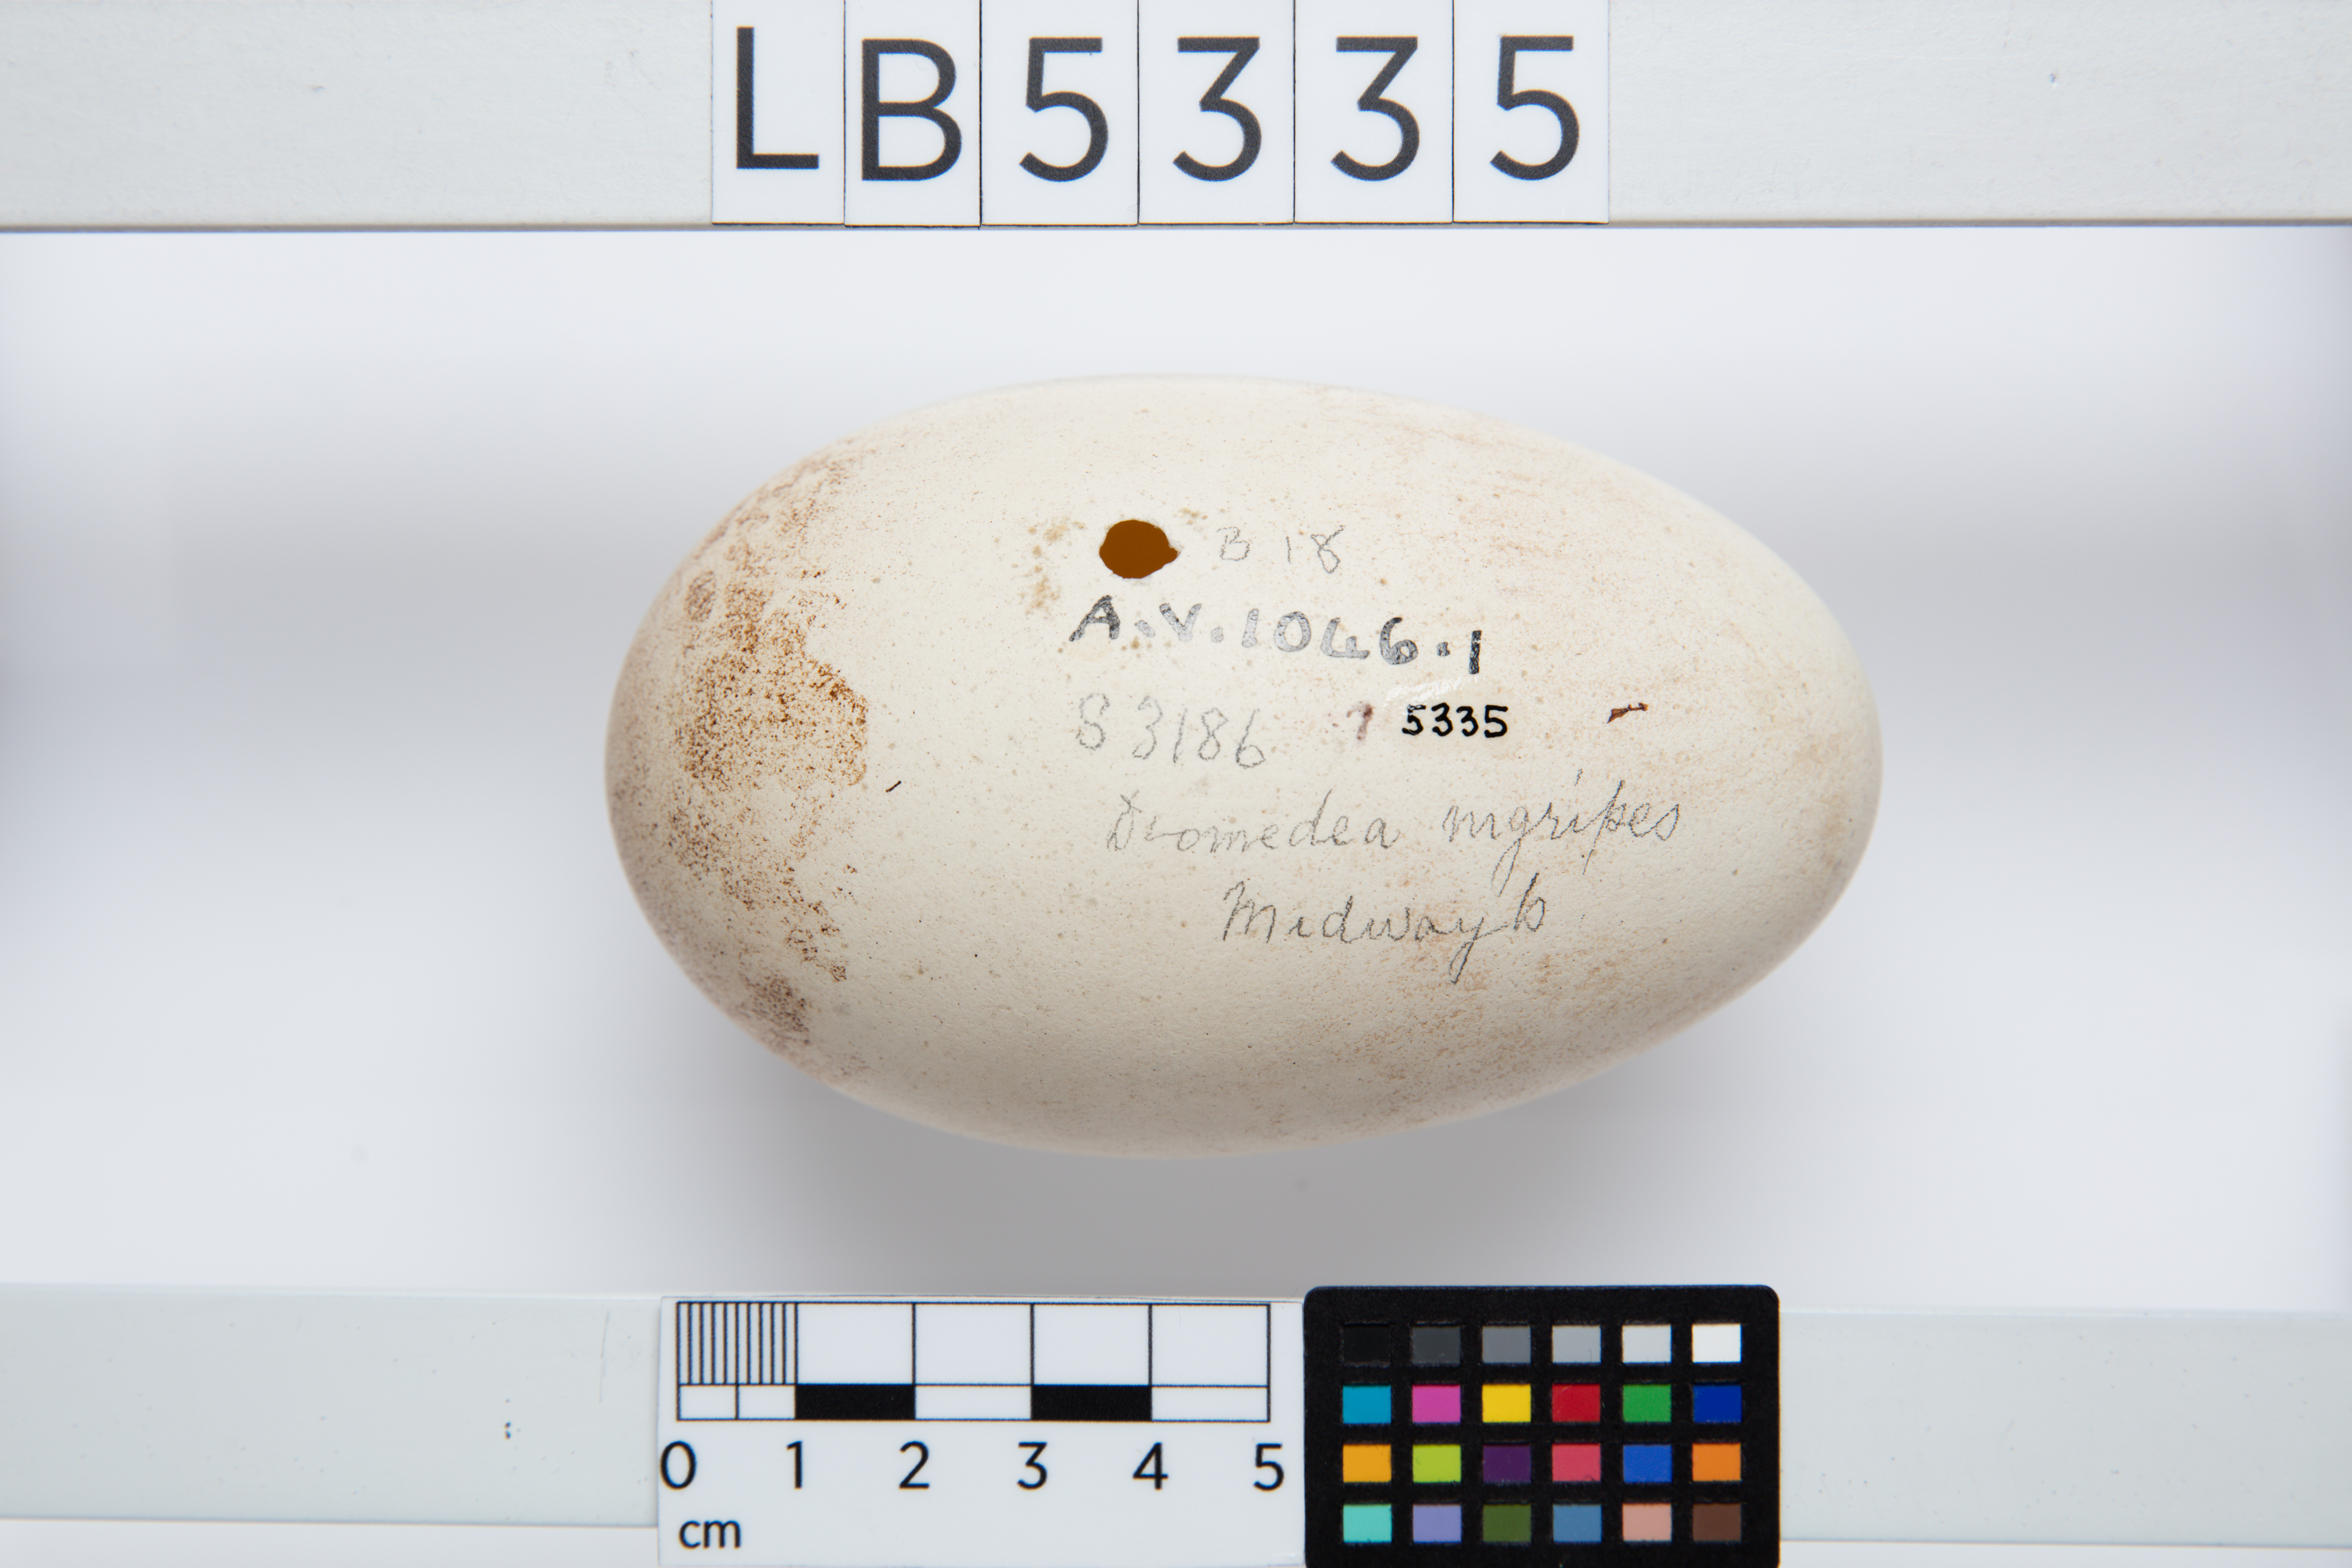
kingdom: Animalia
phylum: Chordata
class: Aves
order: Procellariiformes
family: Diomedeidae
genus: Phoebastria
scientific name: Phoebastria nigripes
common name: Black-footed albatross
